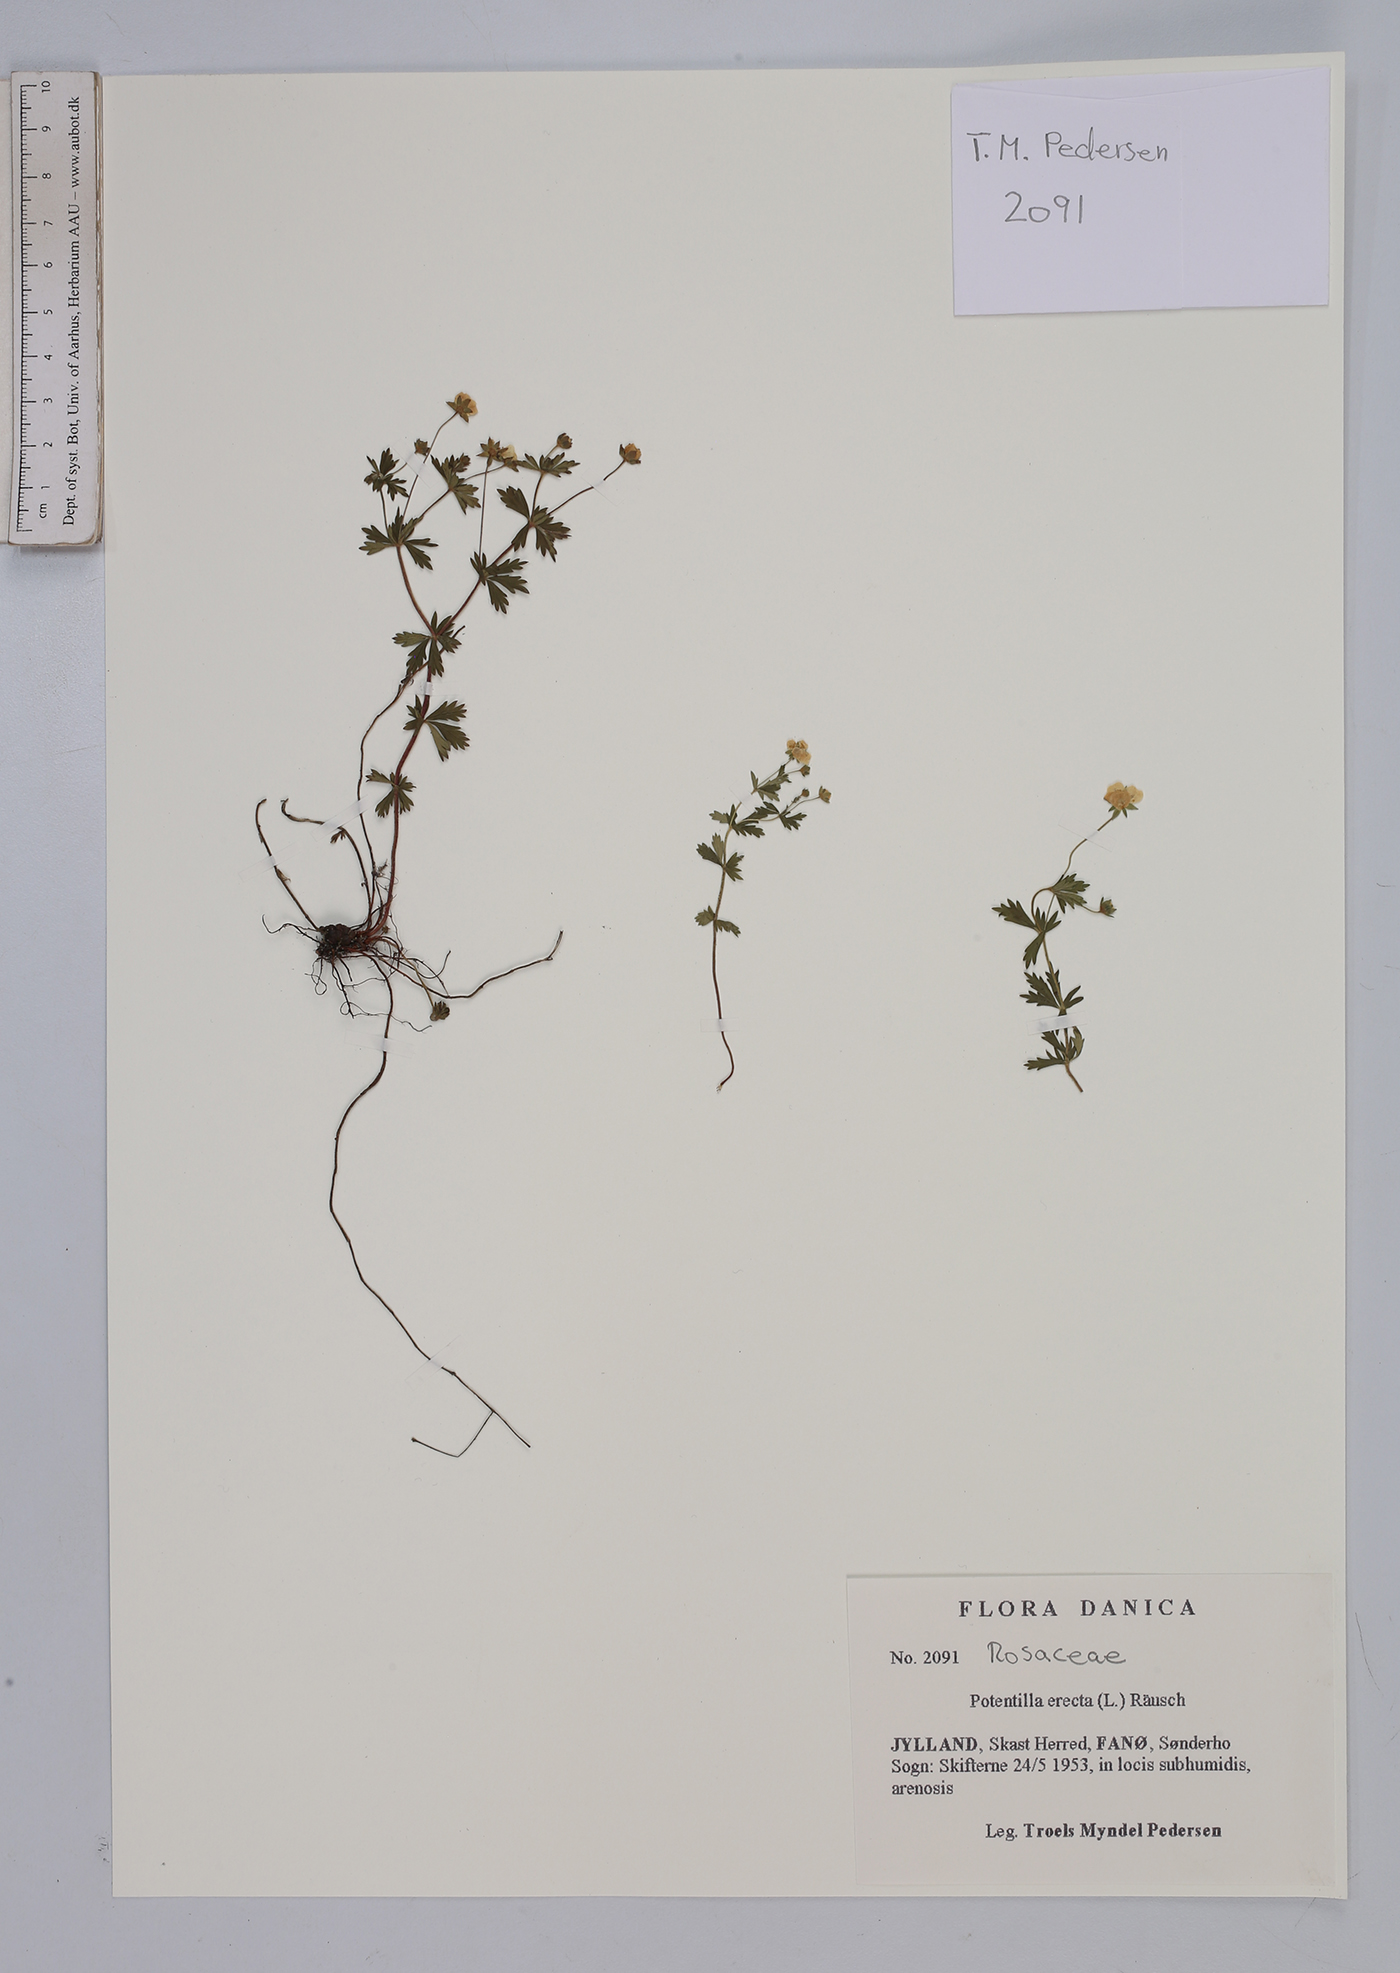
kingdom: Plantae
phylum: Tracheophyta
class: Magnoliopsida
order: Rosales
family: Rosaceae
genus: Potentilla
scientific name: Potentilla erecta
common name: Tormentil
